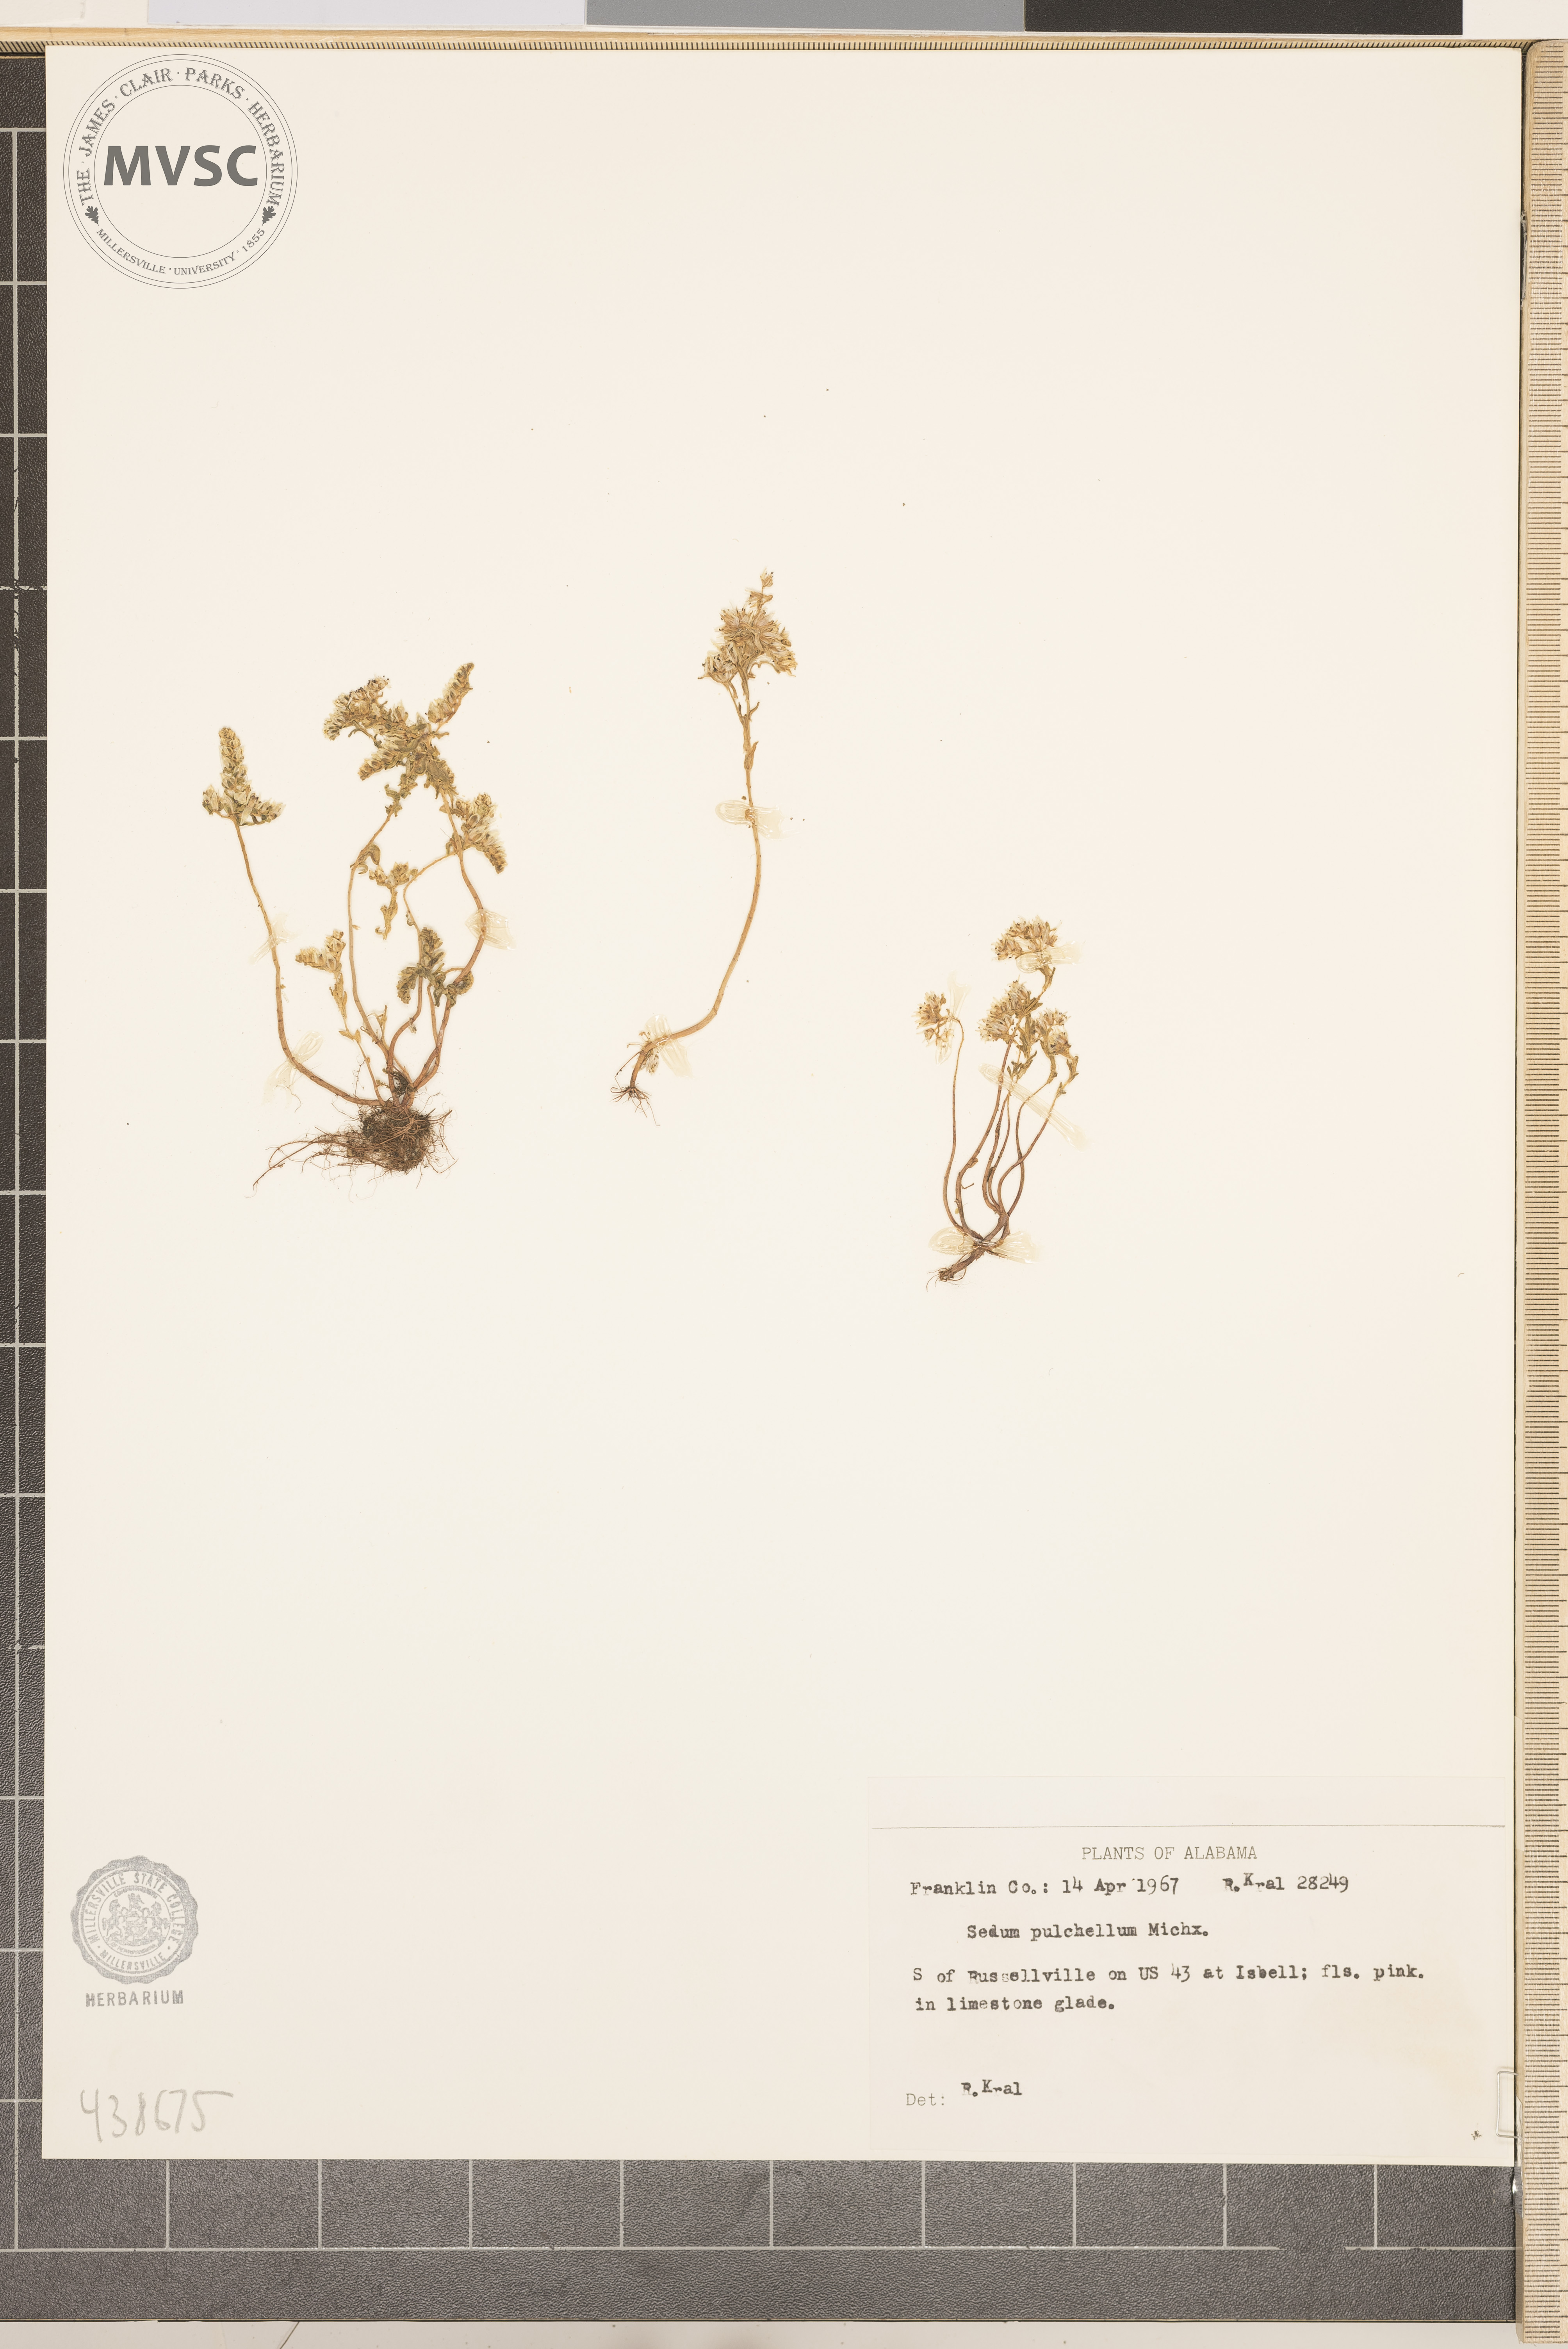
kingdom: Plantae
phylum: Tracheophyta
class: Magnoliopsida
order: Saxifragales
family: Crassulaceae
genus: Sedum
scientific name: Sedum pulchellum
